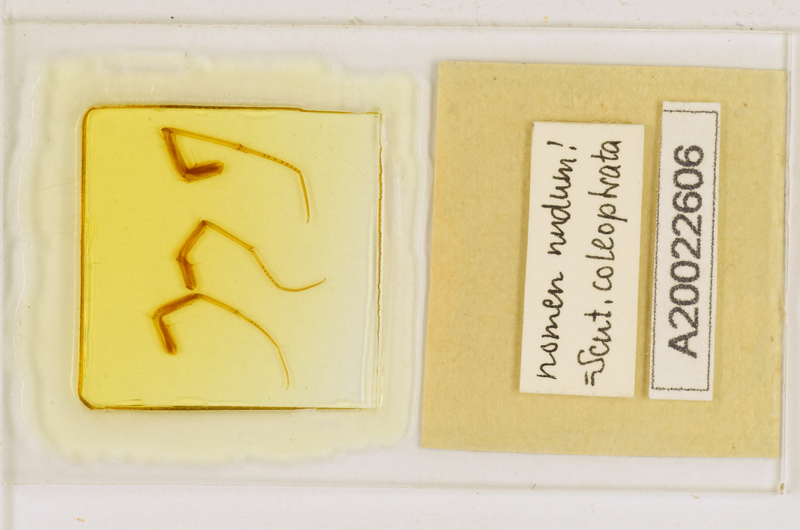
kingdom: Animalia
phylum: Arthropoda
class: Chilopoda
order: Scutigeromorpha
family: Scutigeridae
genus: Scutigera
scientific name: Scutigera coleoptrata
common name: House centipede
